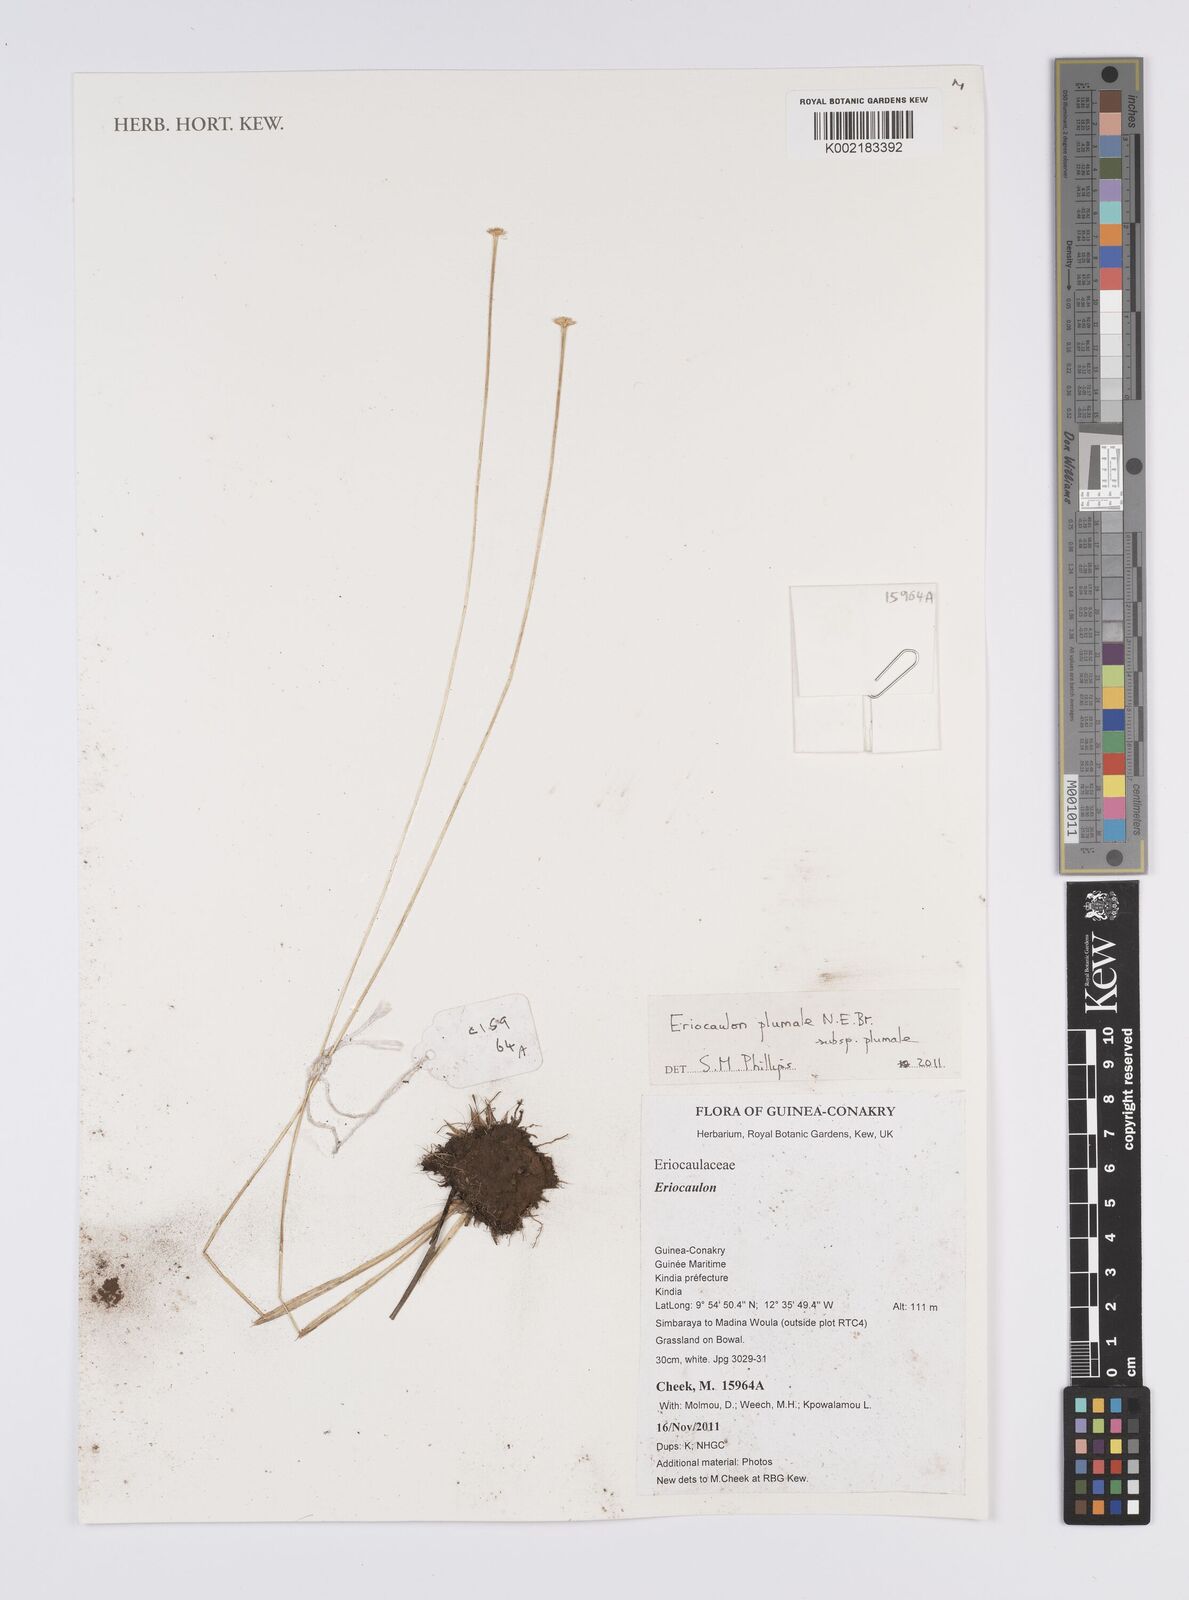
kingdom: Plantae
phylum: Tracheophyta
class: Liliopsida
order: Poales
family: Eriocaulaceae
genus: Eriocaulon
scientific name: Eriocaulon plumale
